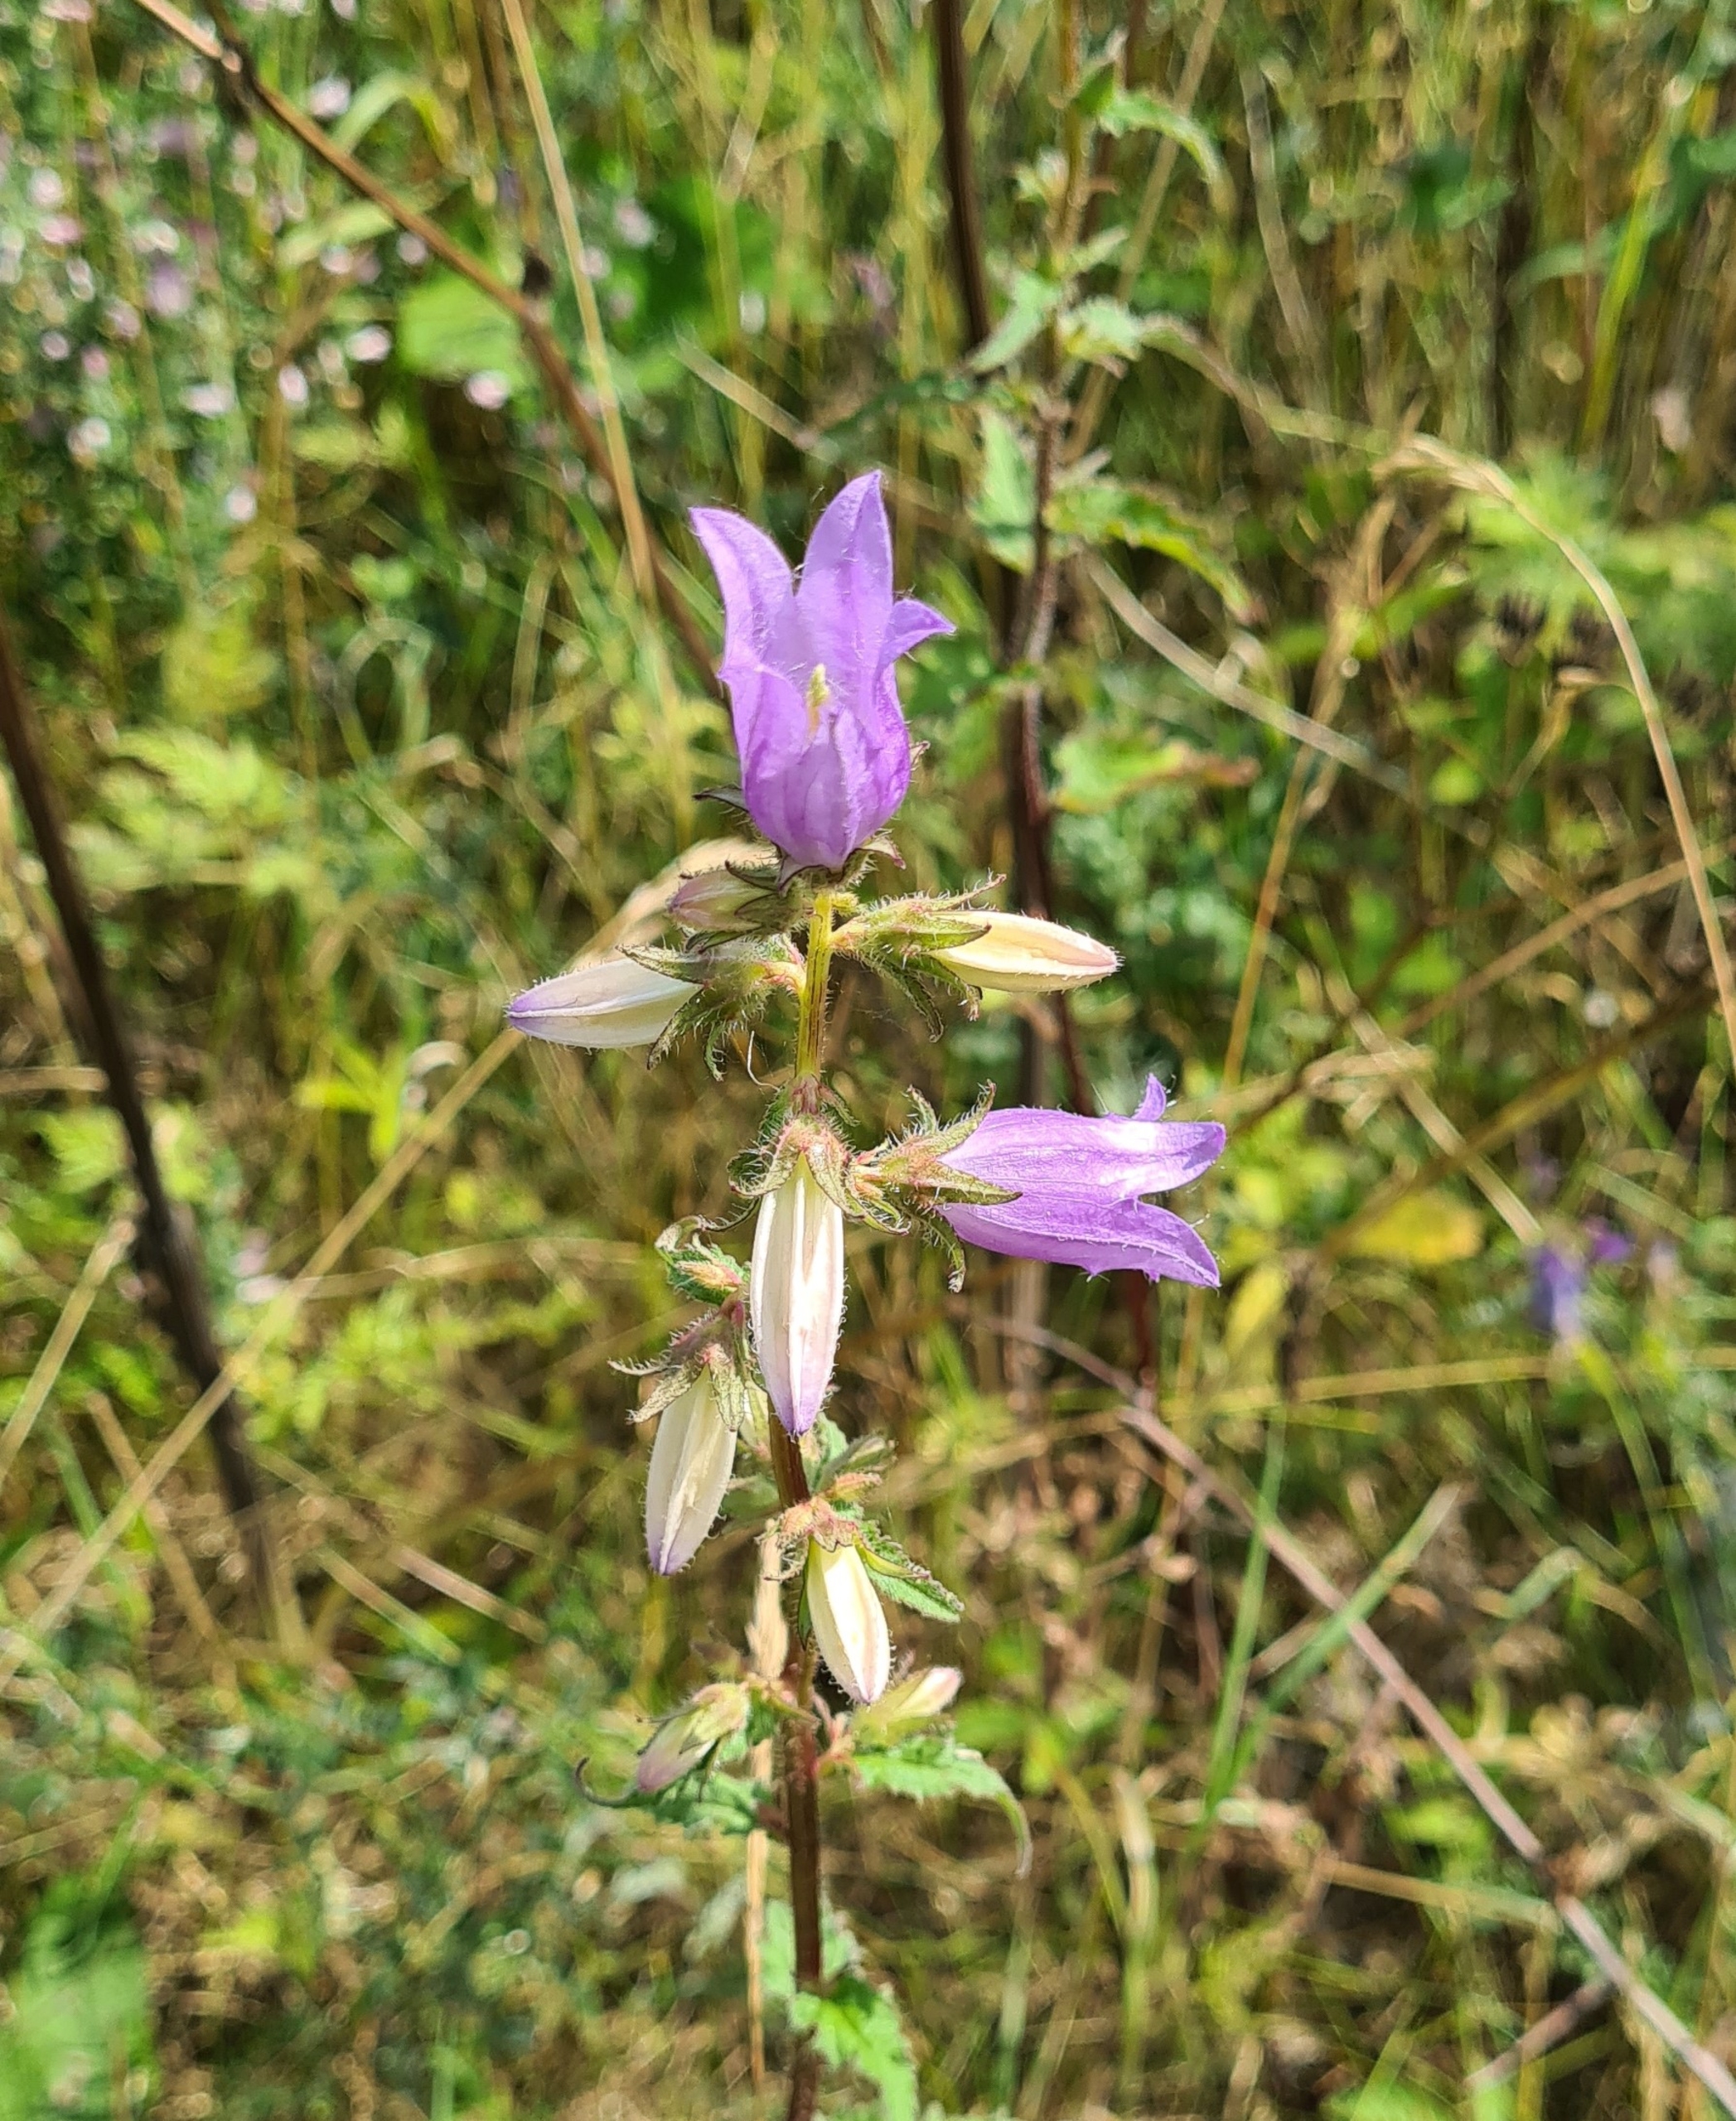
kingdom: Plantae
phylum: Tracheophyta
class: Magnoliopsida
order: Asterales
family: Campanulaceae
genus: Campanula
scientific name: Campanula trachelium
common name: Nælde-klokke
